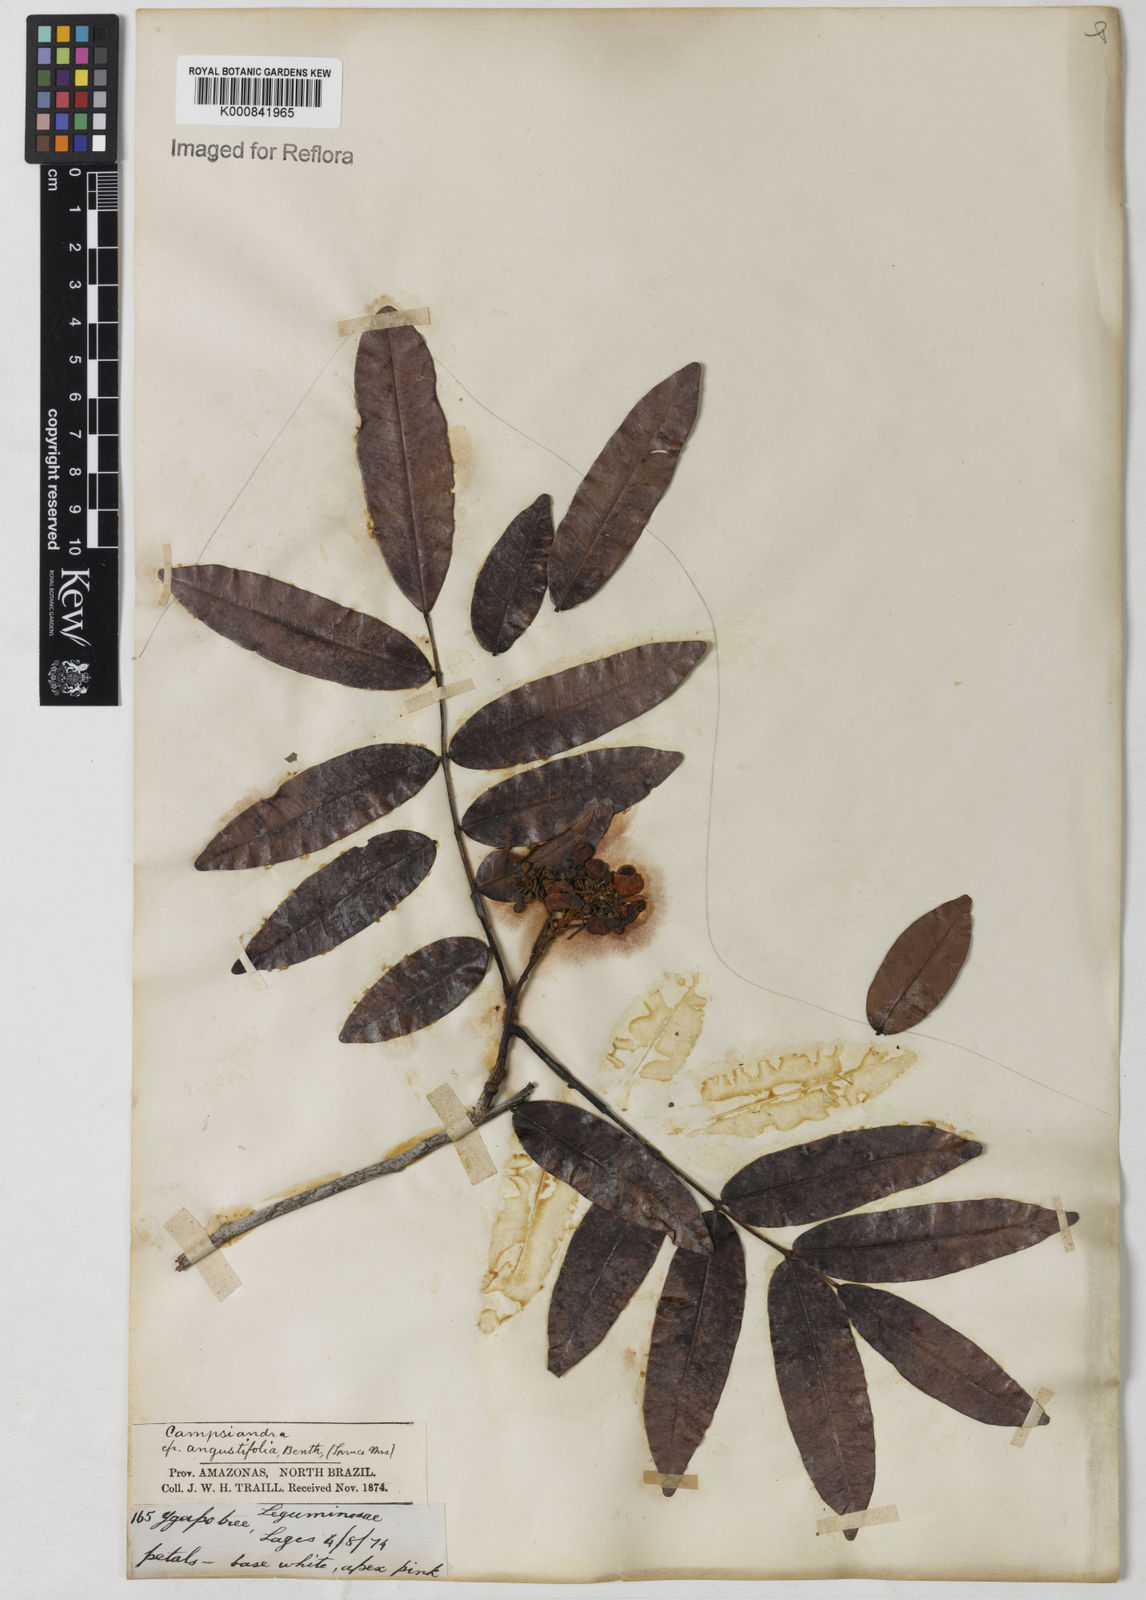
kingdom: Plantae
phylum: Tracheophyta
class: Magnoliopsida
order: Fabales
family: Fabaceae
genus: Campsiandra
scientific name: Campsiandra
